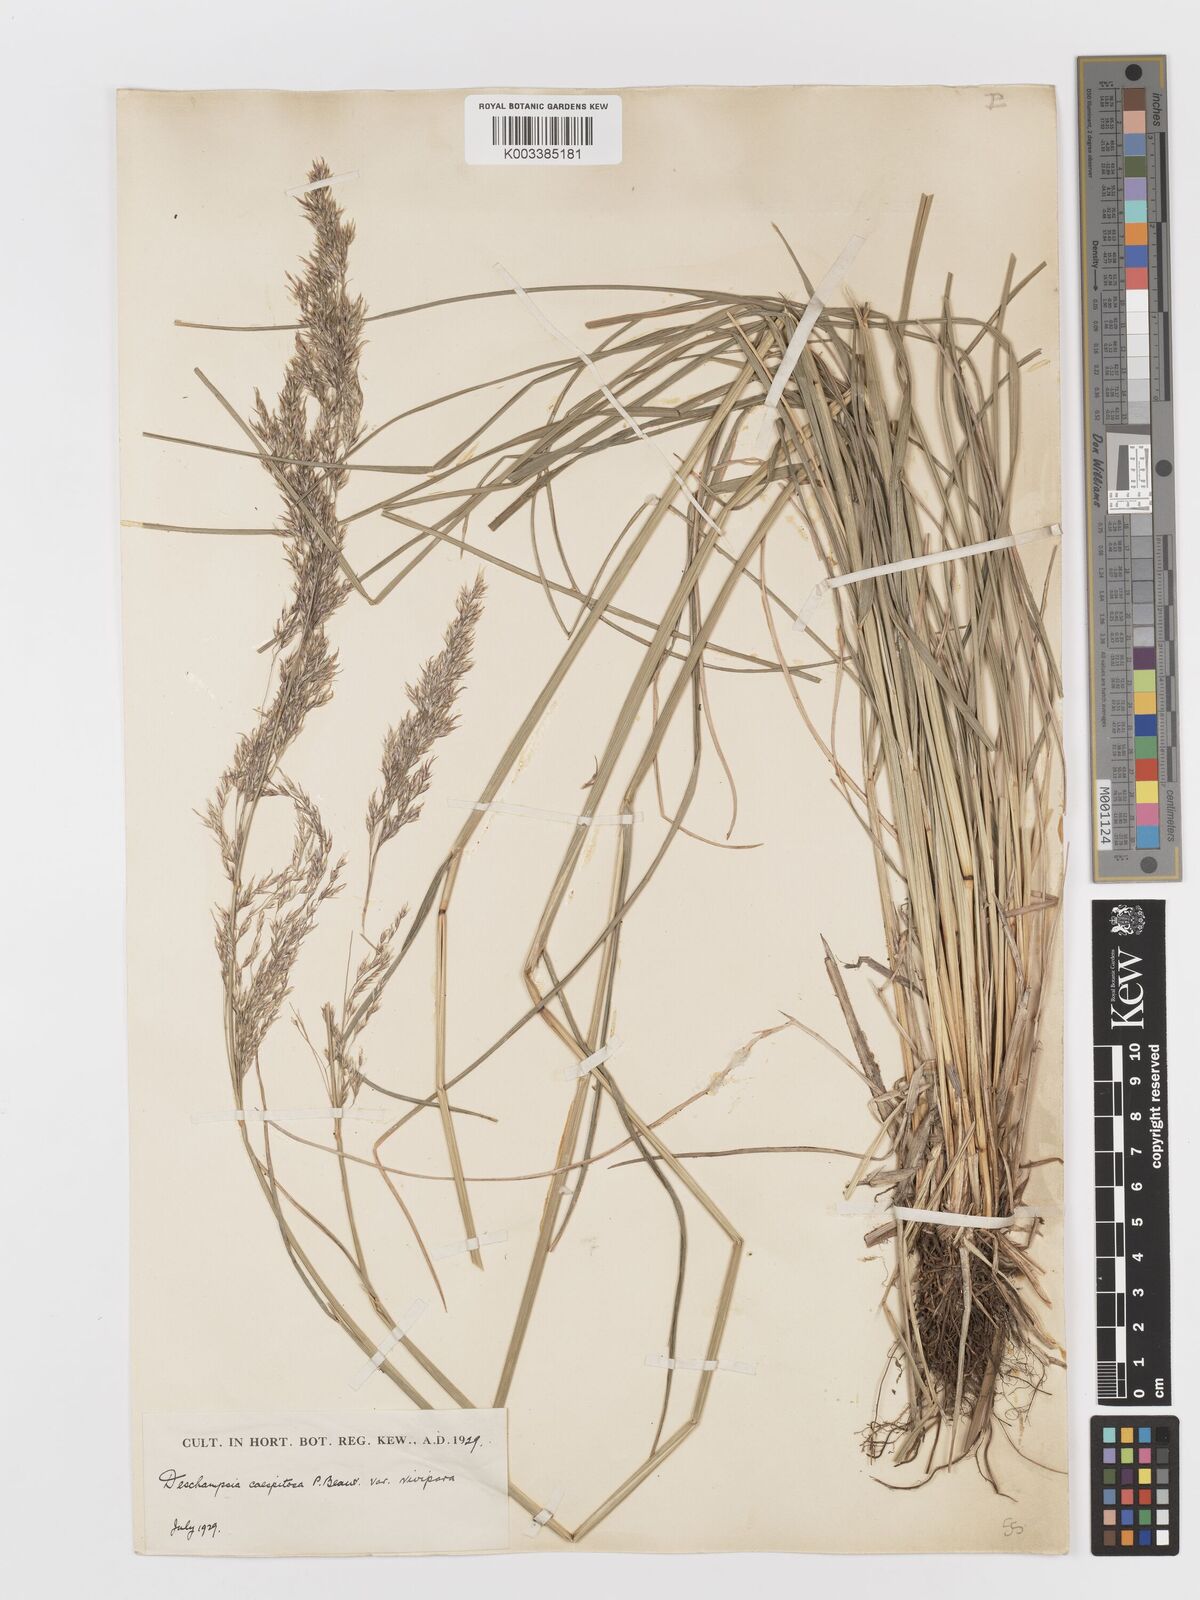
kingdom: Plantae
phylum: Tracheophyta
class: Liliopsida
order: Poales
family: Poaceae
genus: Deschampsia
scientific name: Deschampsia cespitosa
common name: Tufted hair-grass
